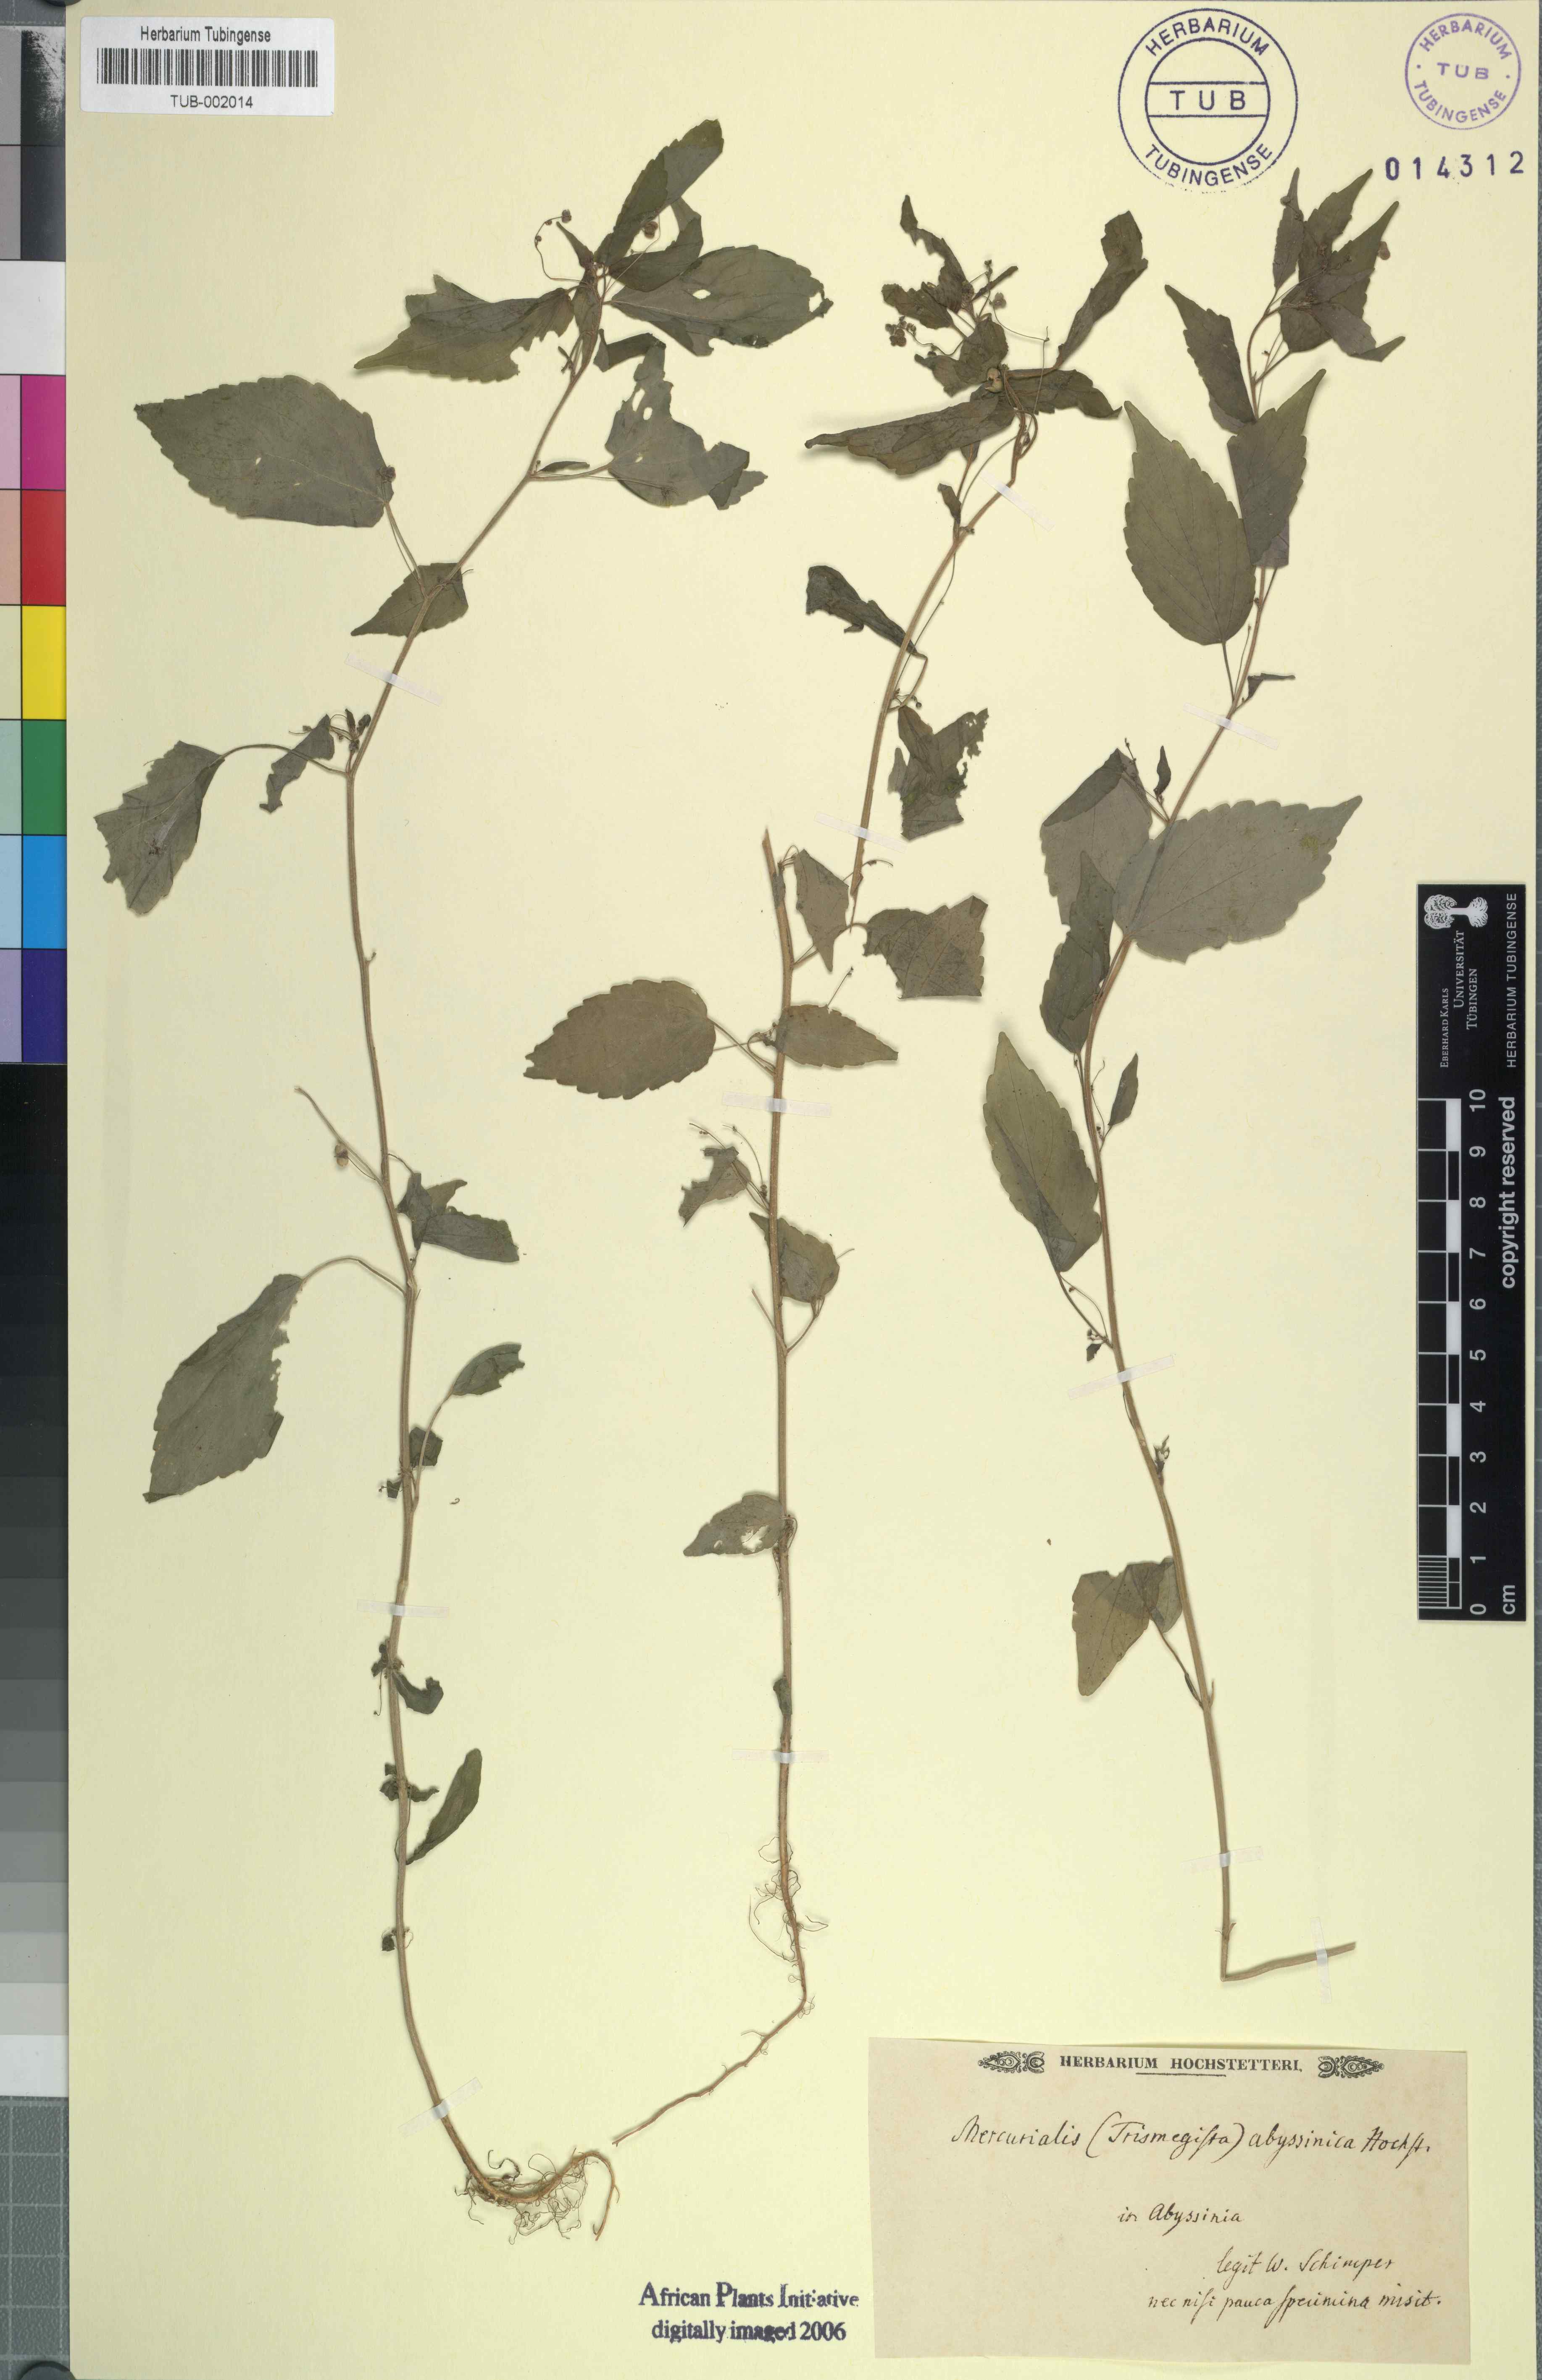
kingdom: Plantae
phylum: Tracheophyta
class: Magnoliopsida
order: Malpighiales
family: Euphorbiaceae
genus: Micrococca
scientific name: Micrococca mercurialis
